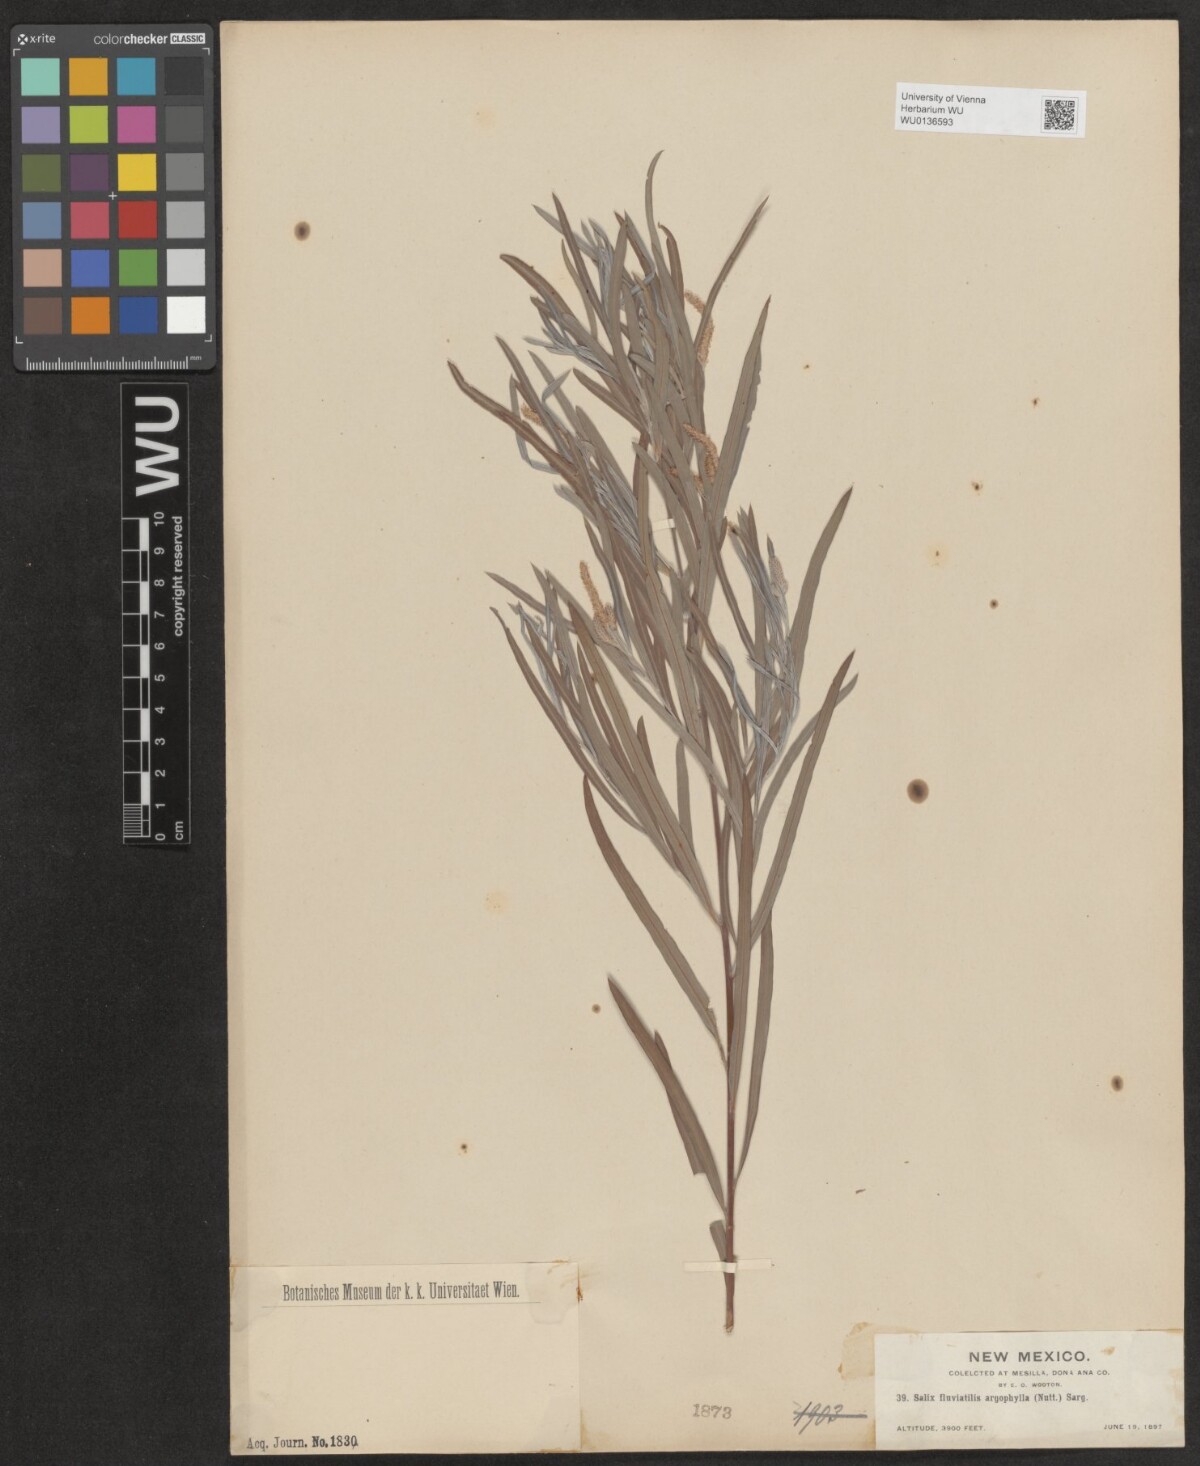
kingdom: Plantae
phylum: Tracheophyta
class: Magnoliopsida
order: Malpighiales
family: Salicaceae
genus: Salix
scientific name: Salix exigua
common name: Coyote willow
